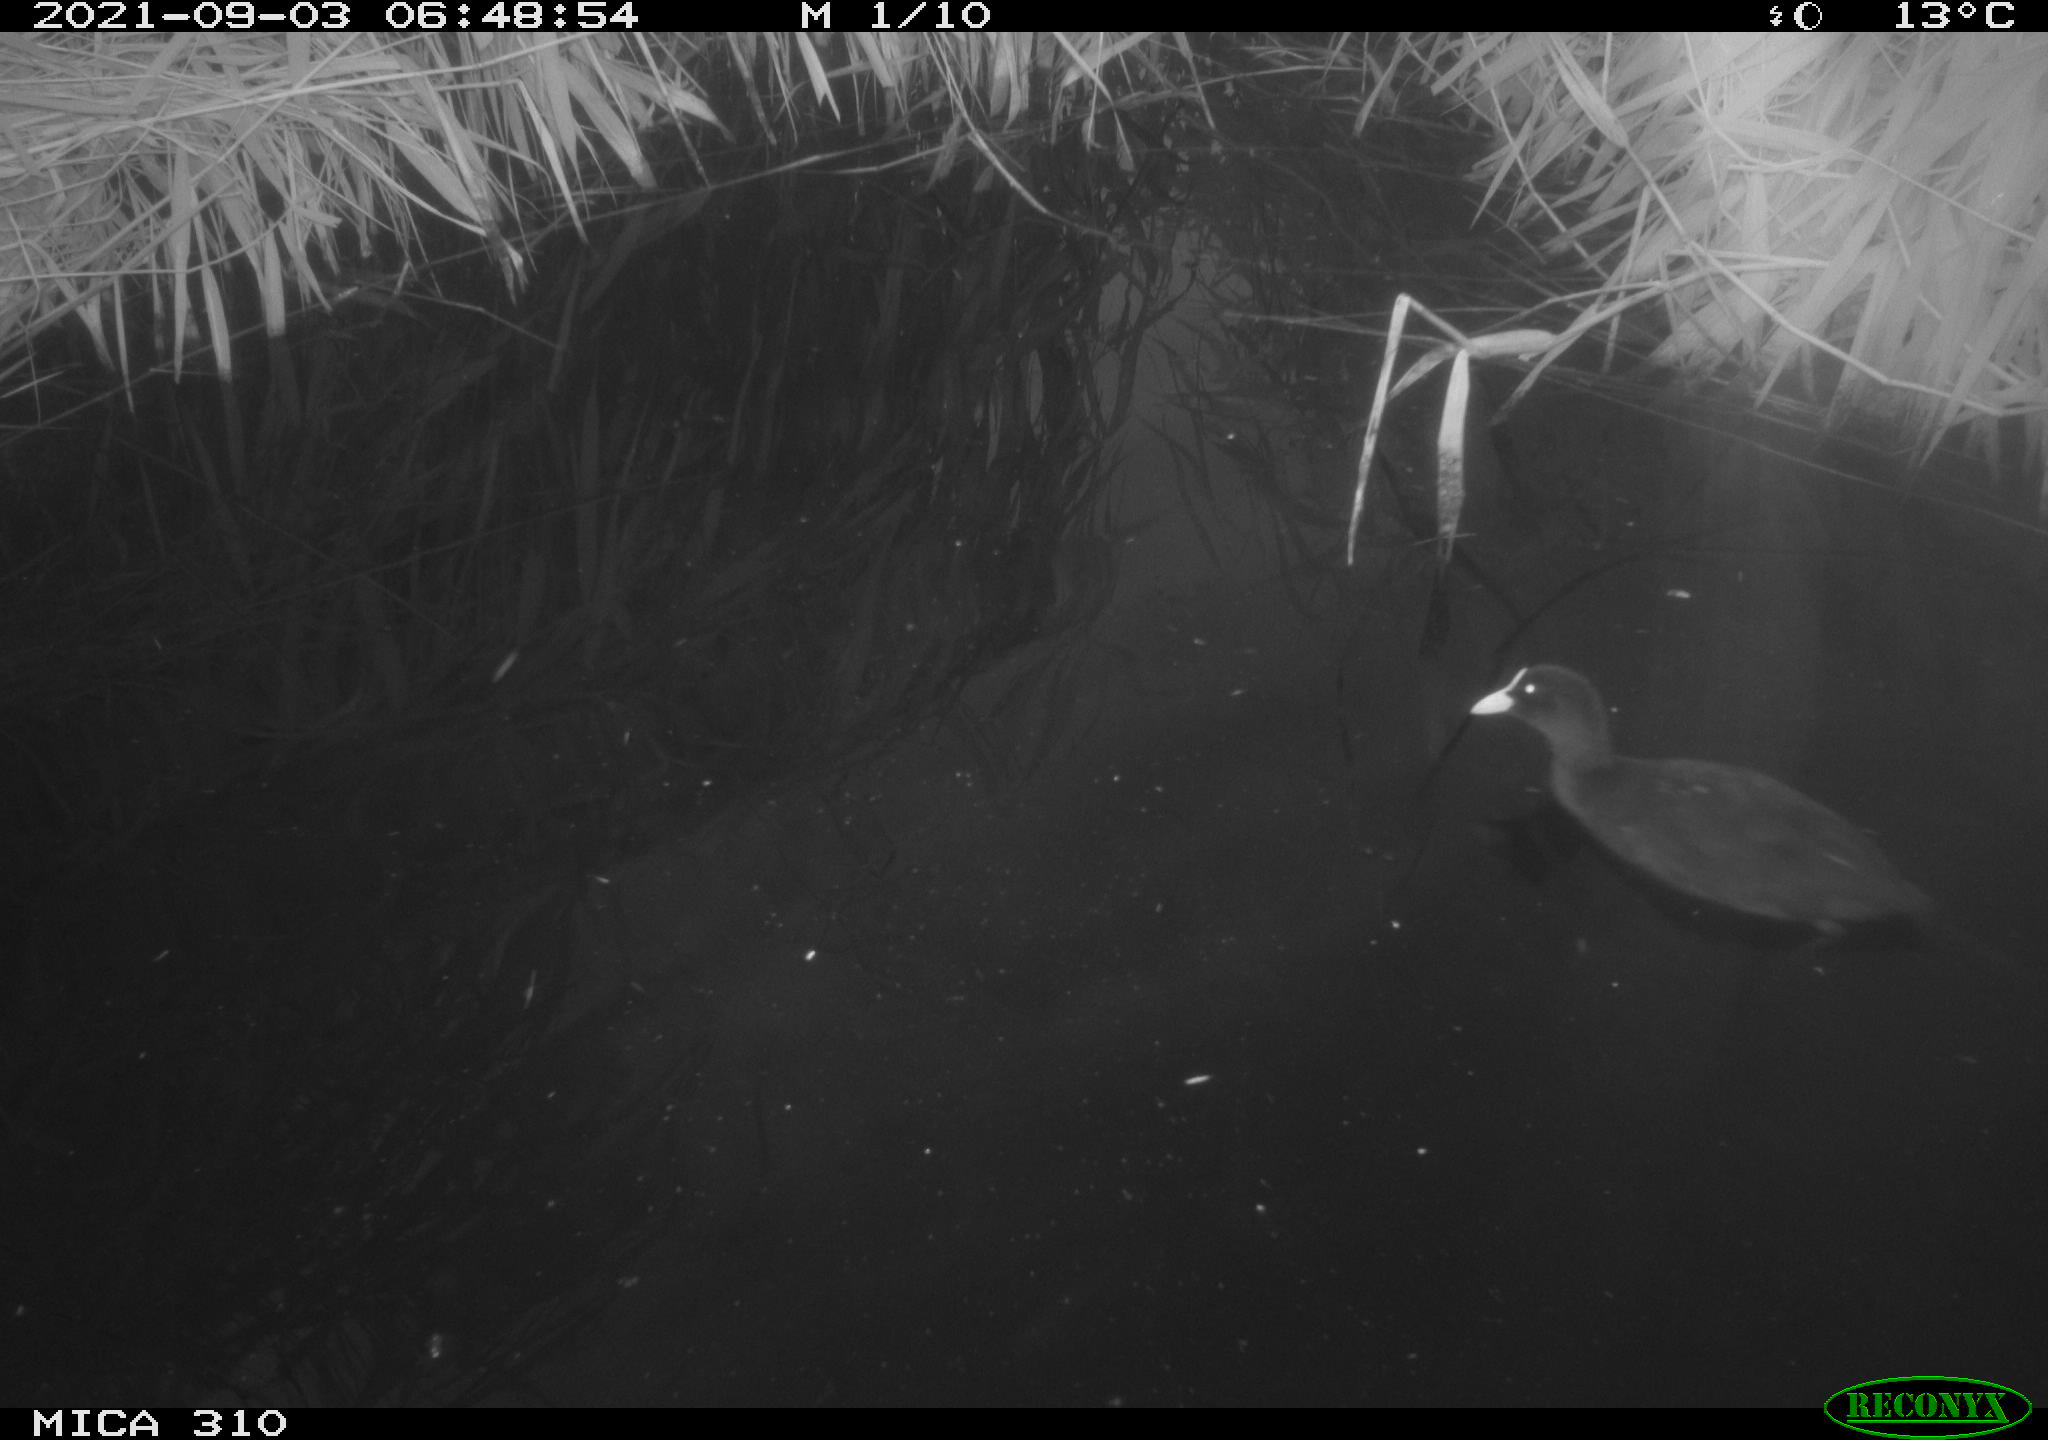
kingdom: Animalia
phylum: Chordata
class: Aves
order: Gruiformes
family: Rallidae
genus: Fulica
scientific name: Fulica atra
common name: Eurasian coot
